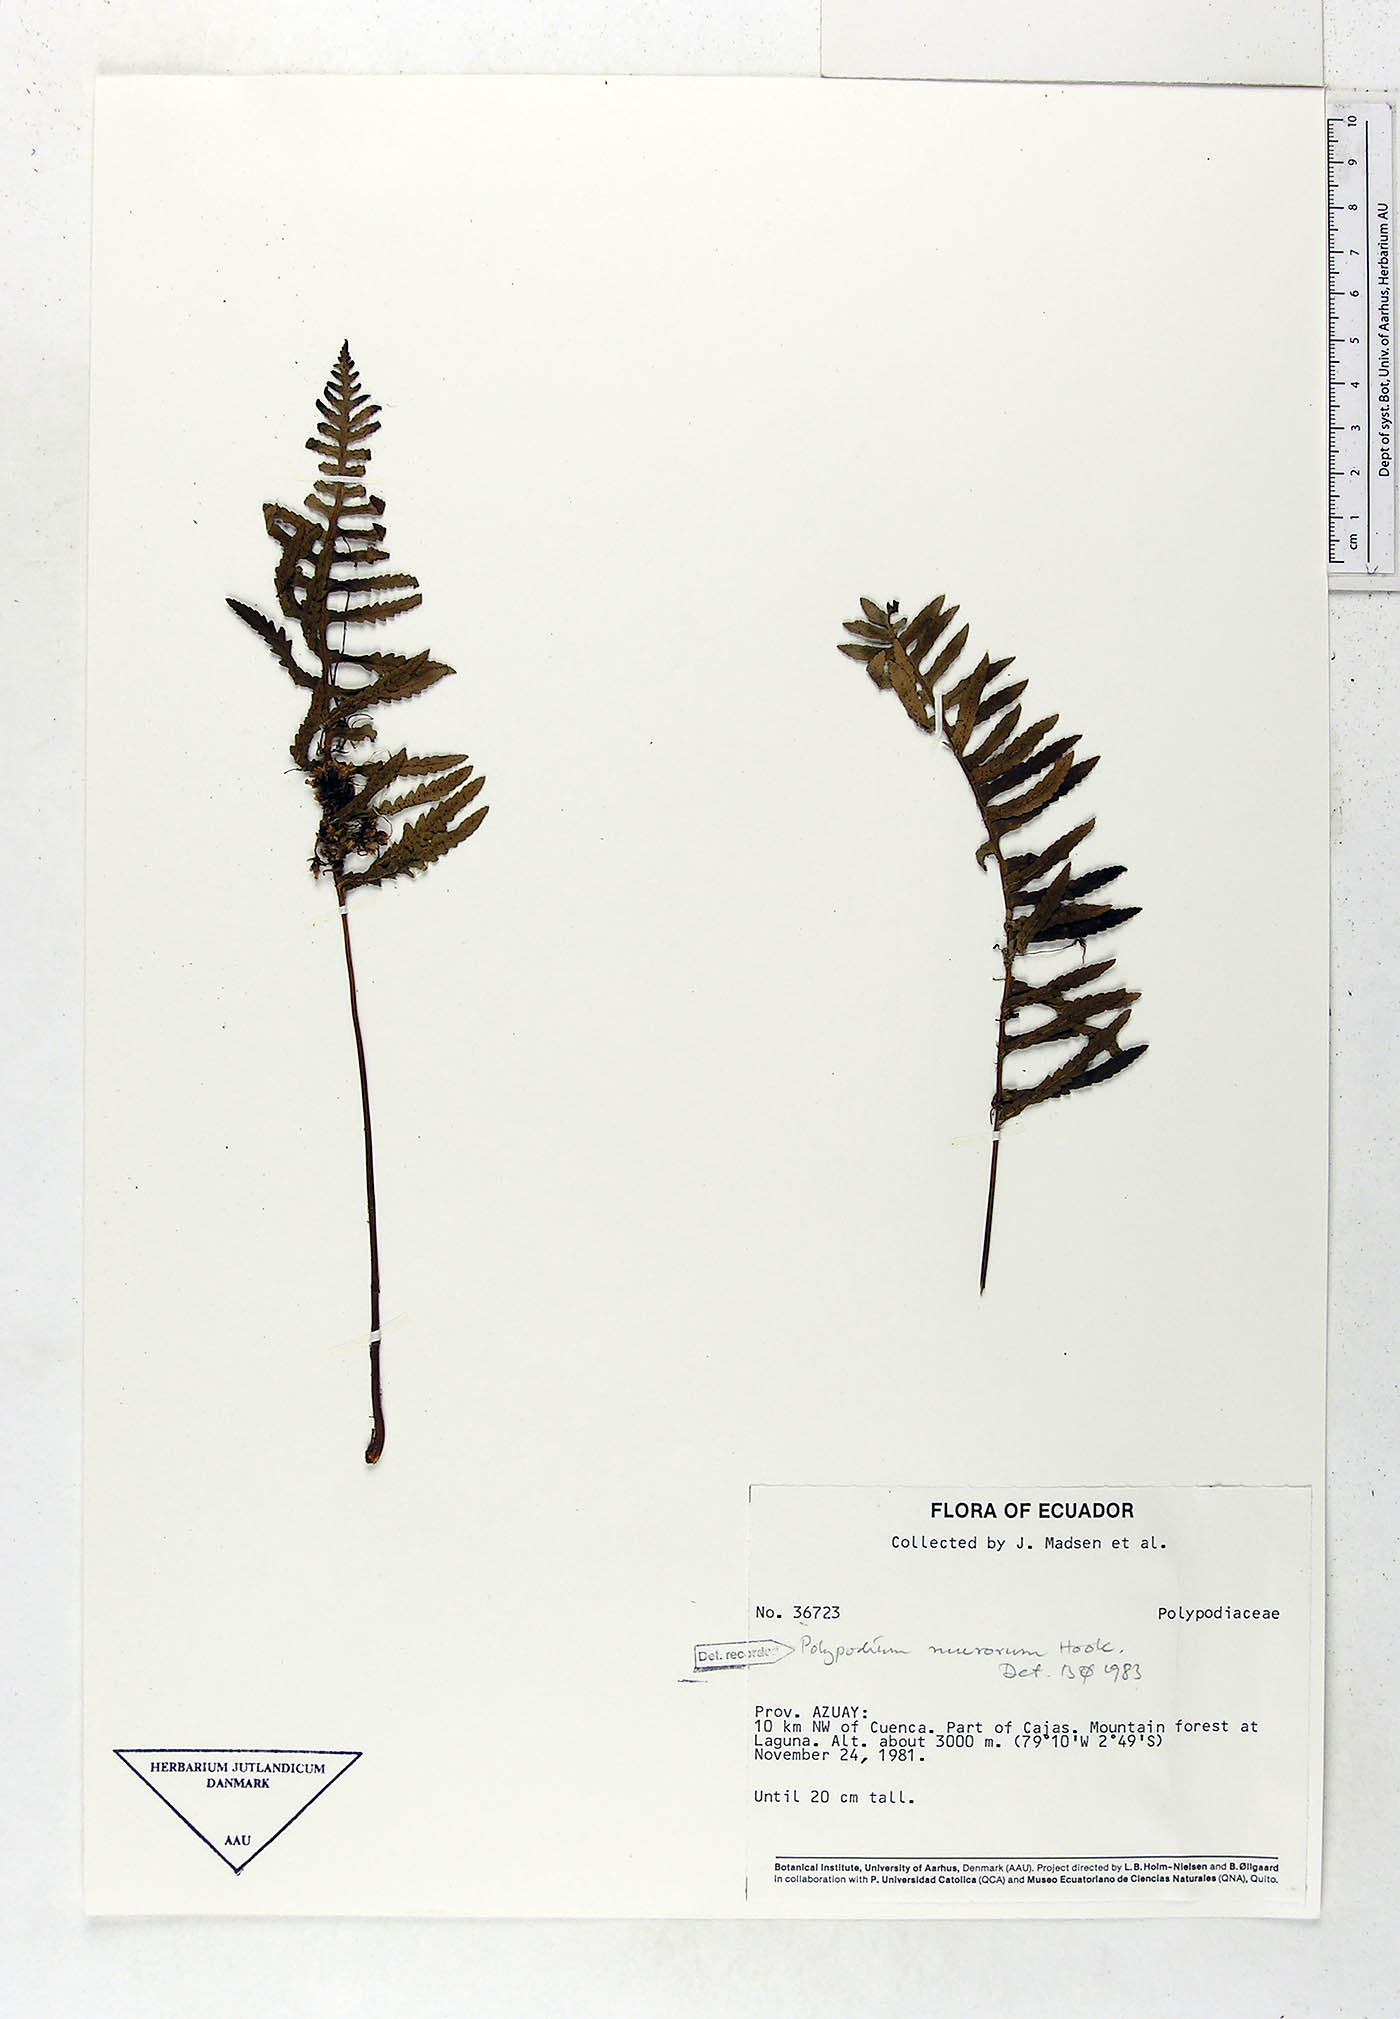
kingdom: Plantae
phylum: Tracheophyta
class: Polypodiopsida
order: Polypodiales
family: Polypodiaceae
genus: Pleopeltis
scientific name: Pleopeltis murora
